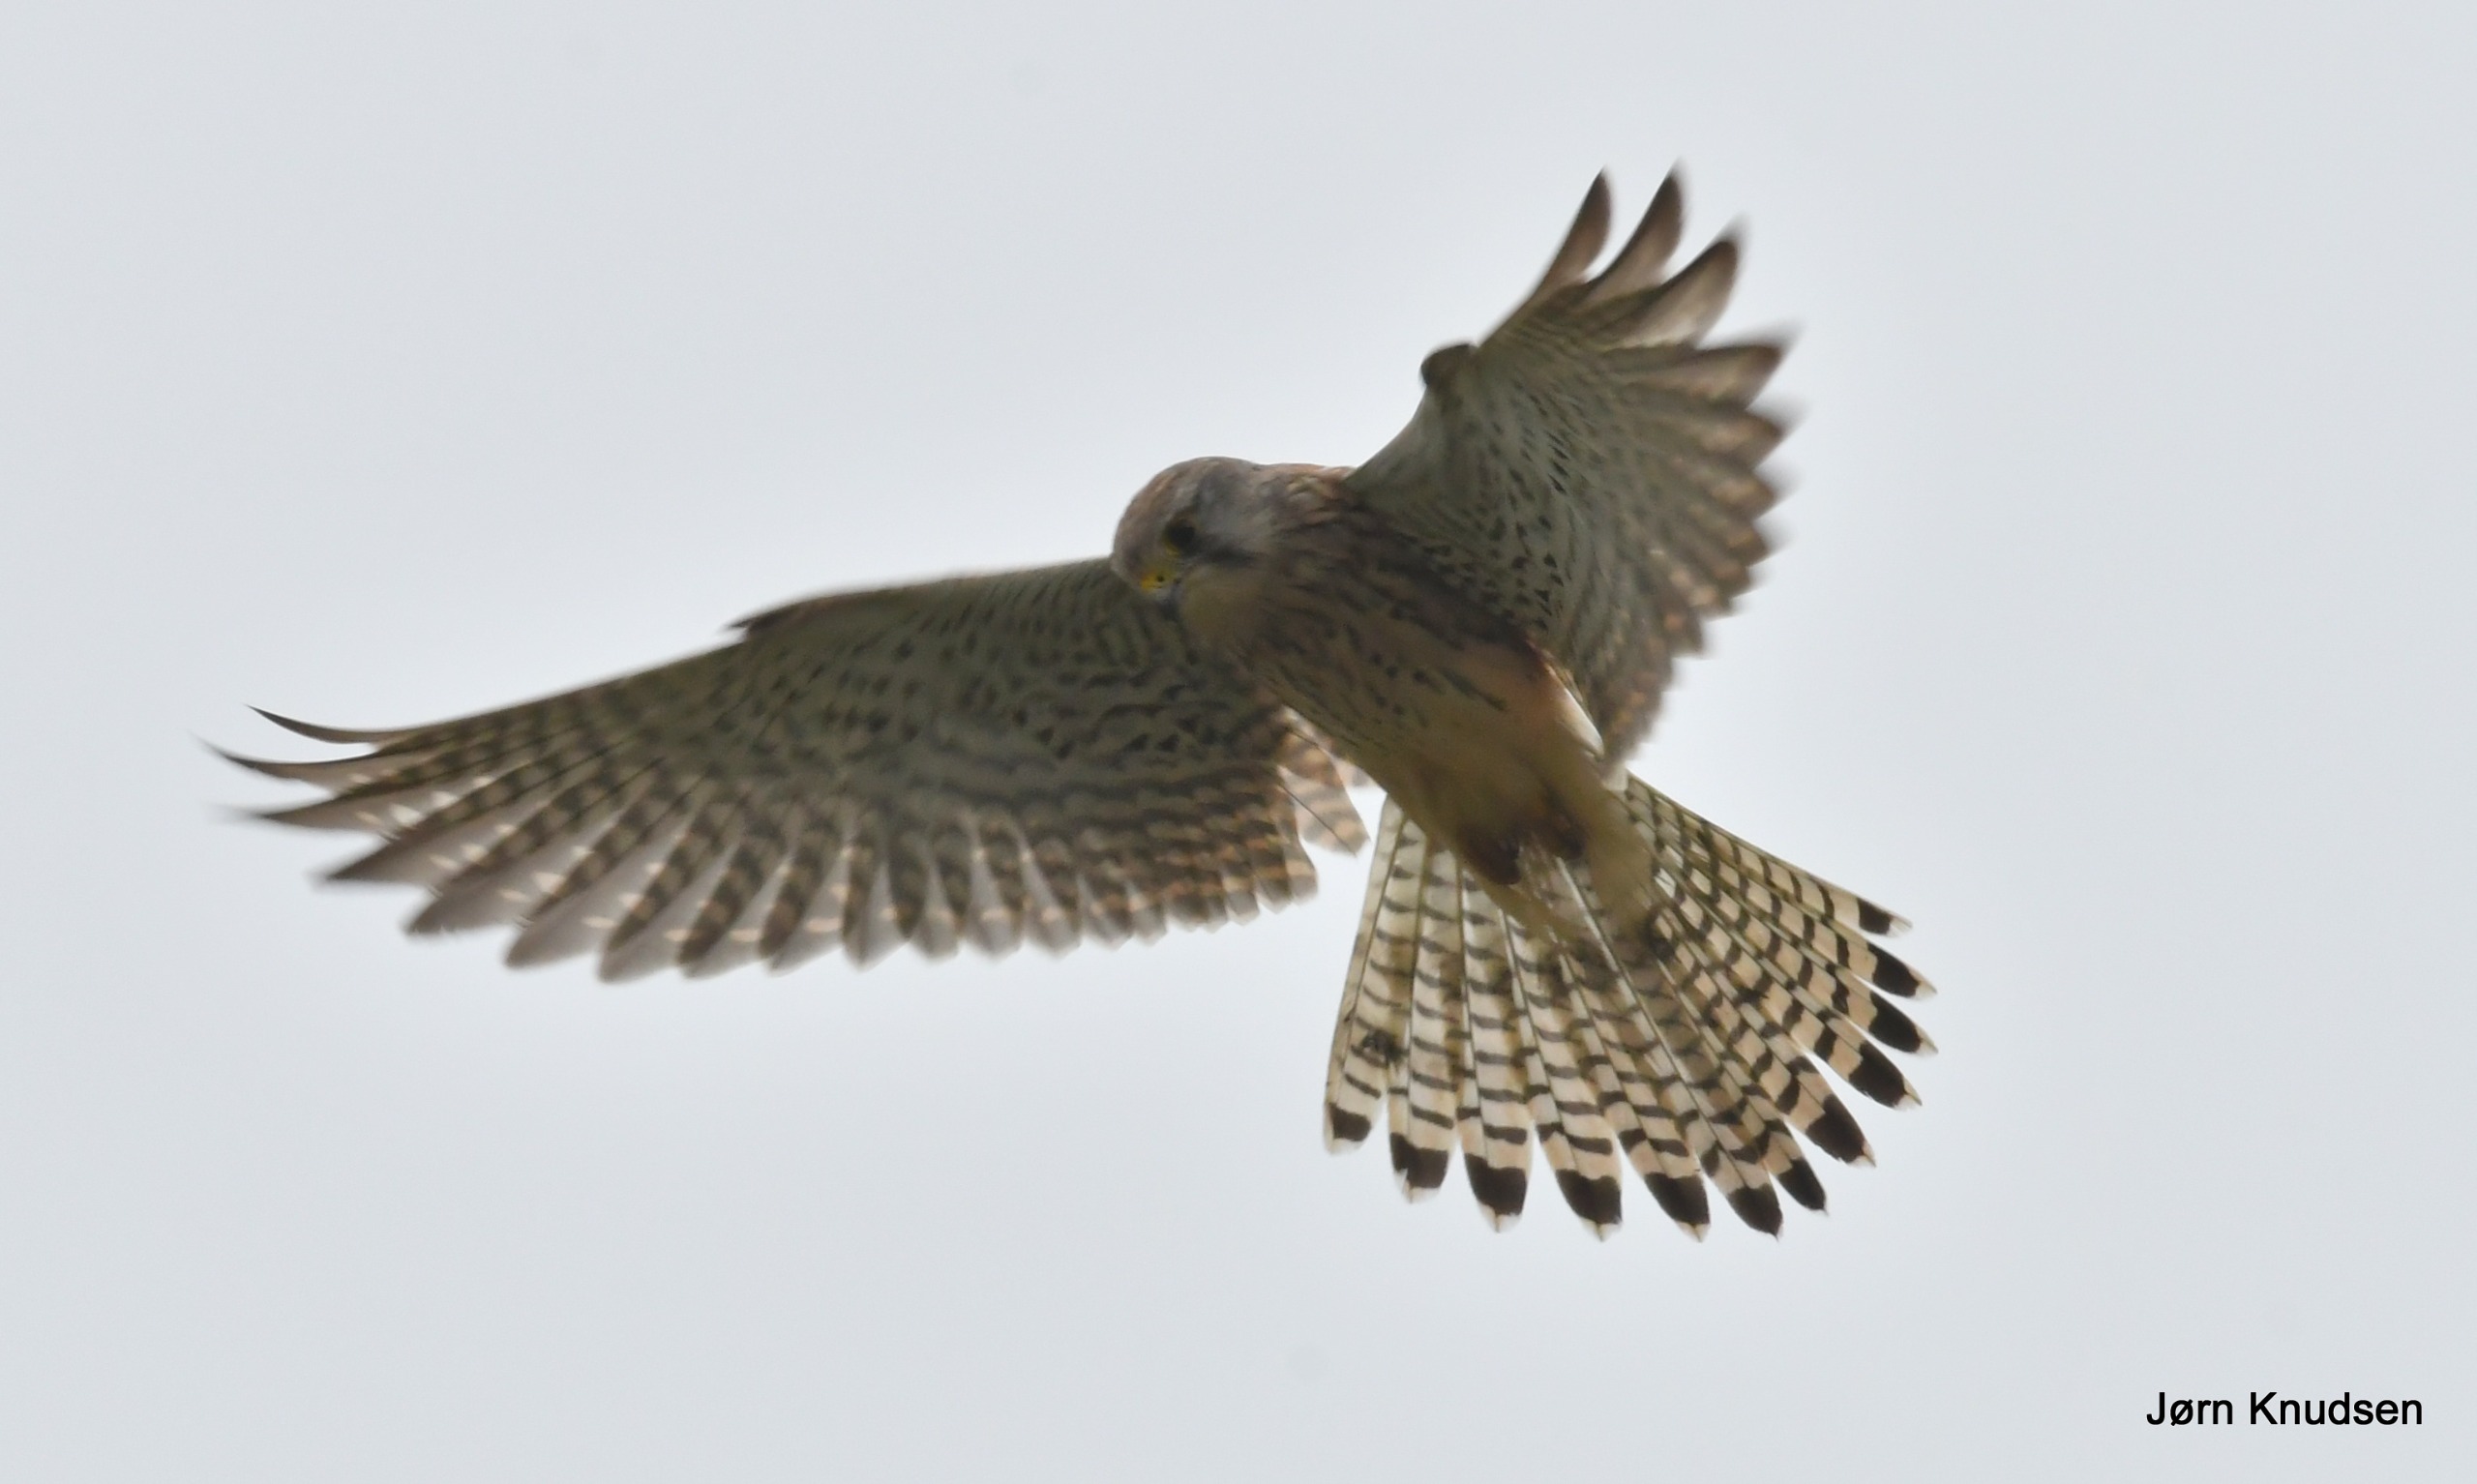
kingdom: Animalia
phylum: Chordata
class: Aves
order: Falconiformes
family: Falconidae
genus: Falco
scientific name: Falco tinnunculus
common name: Tårnfalk
